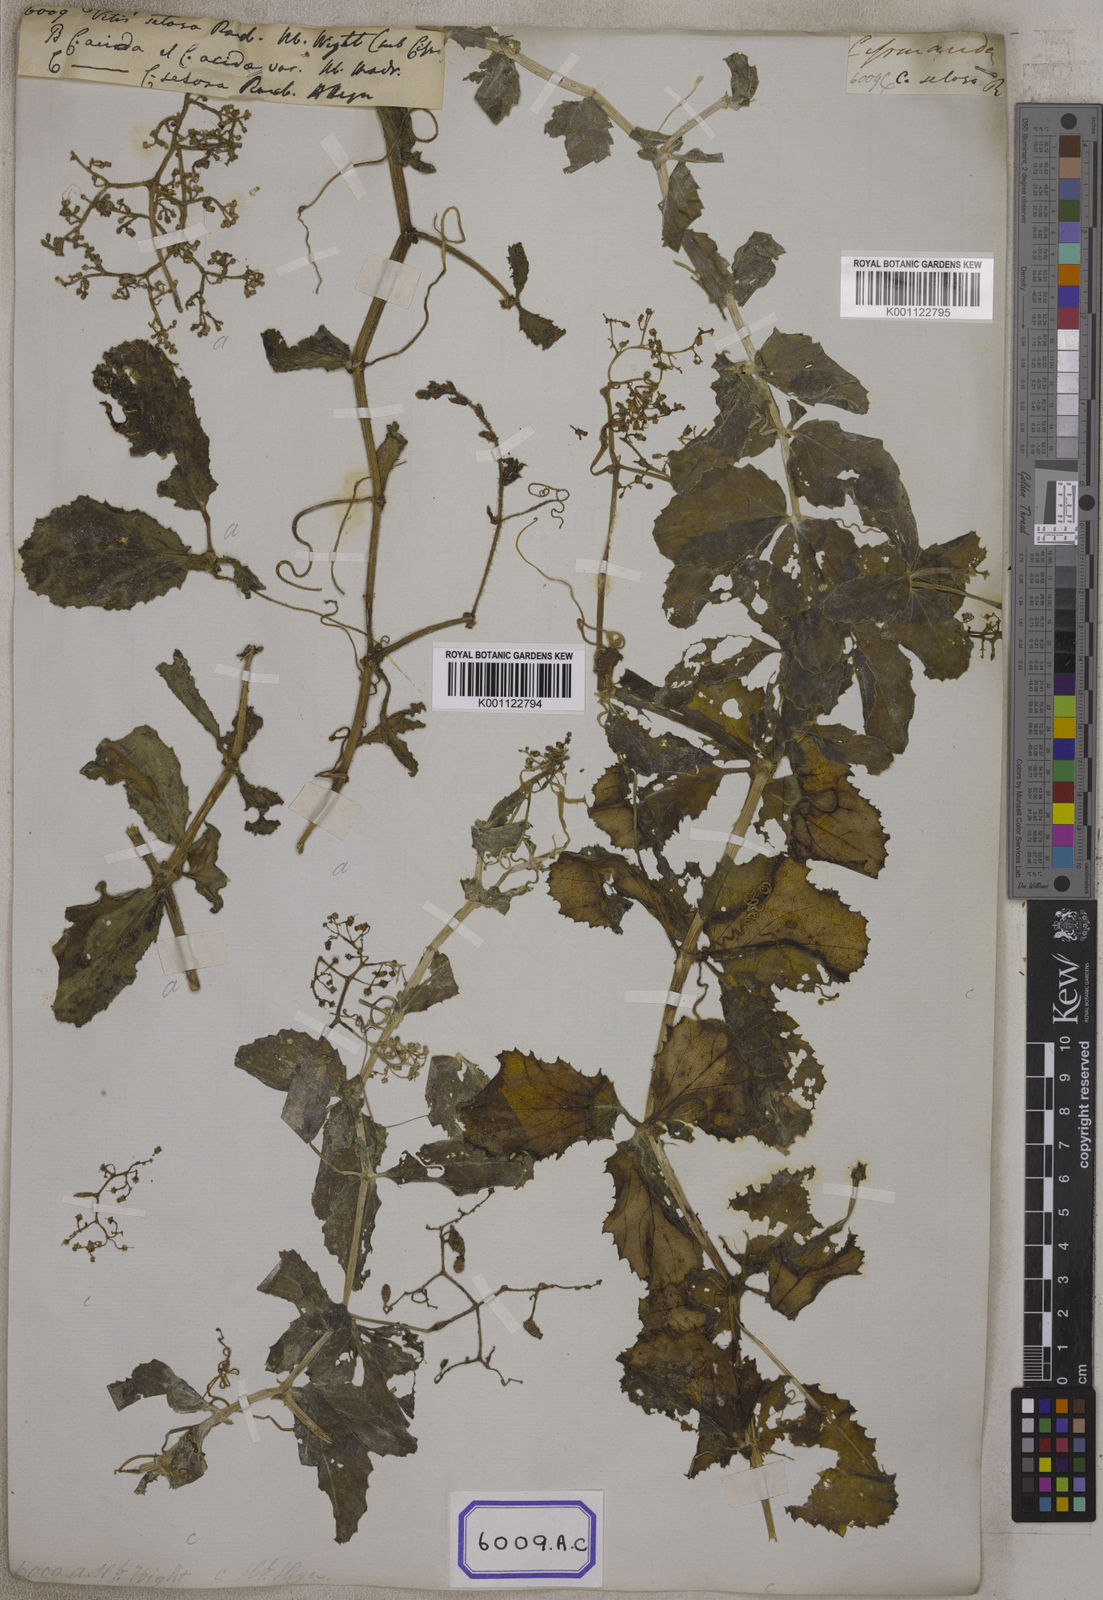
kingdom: Plantae
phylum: Tracheophyta
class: Magnoliopsida
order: Vitales
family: Vitaceae
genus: Vitis
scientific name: Vitis
